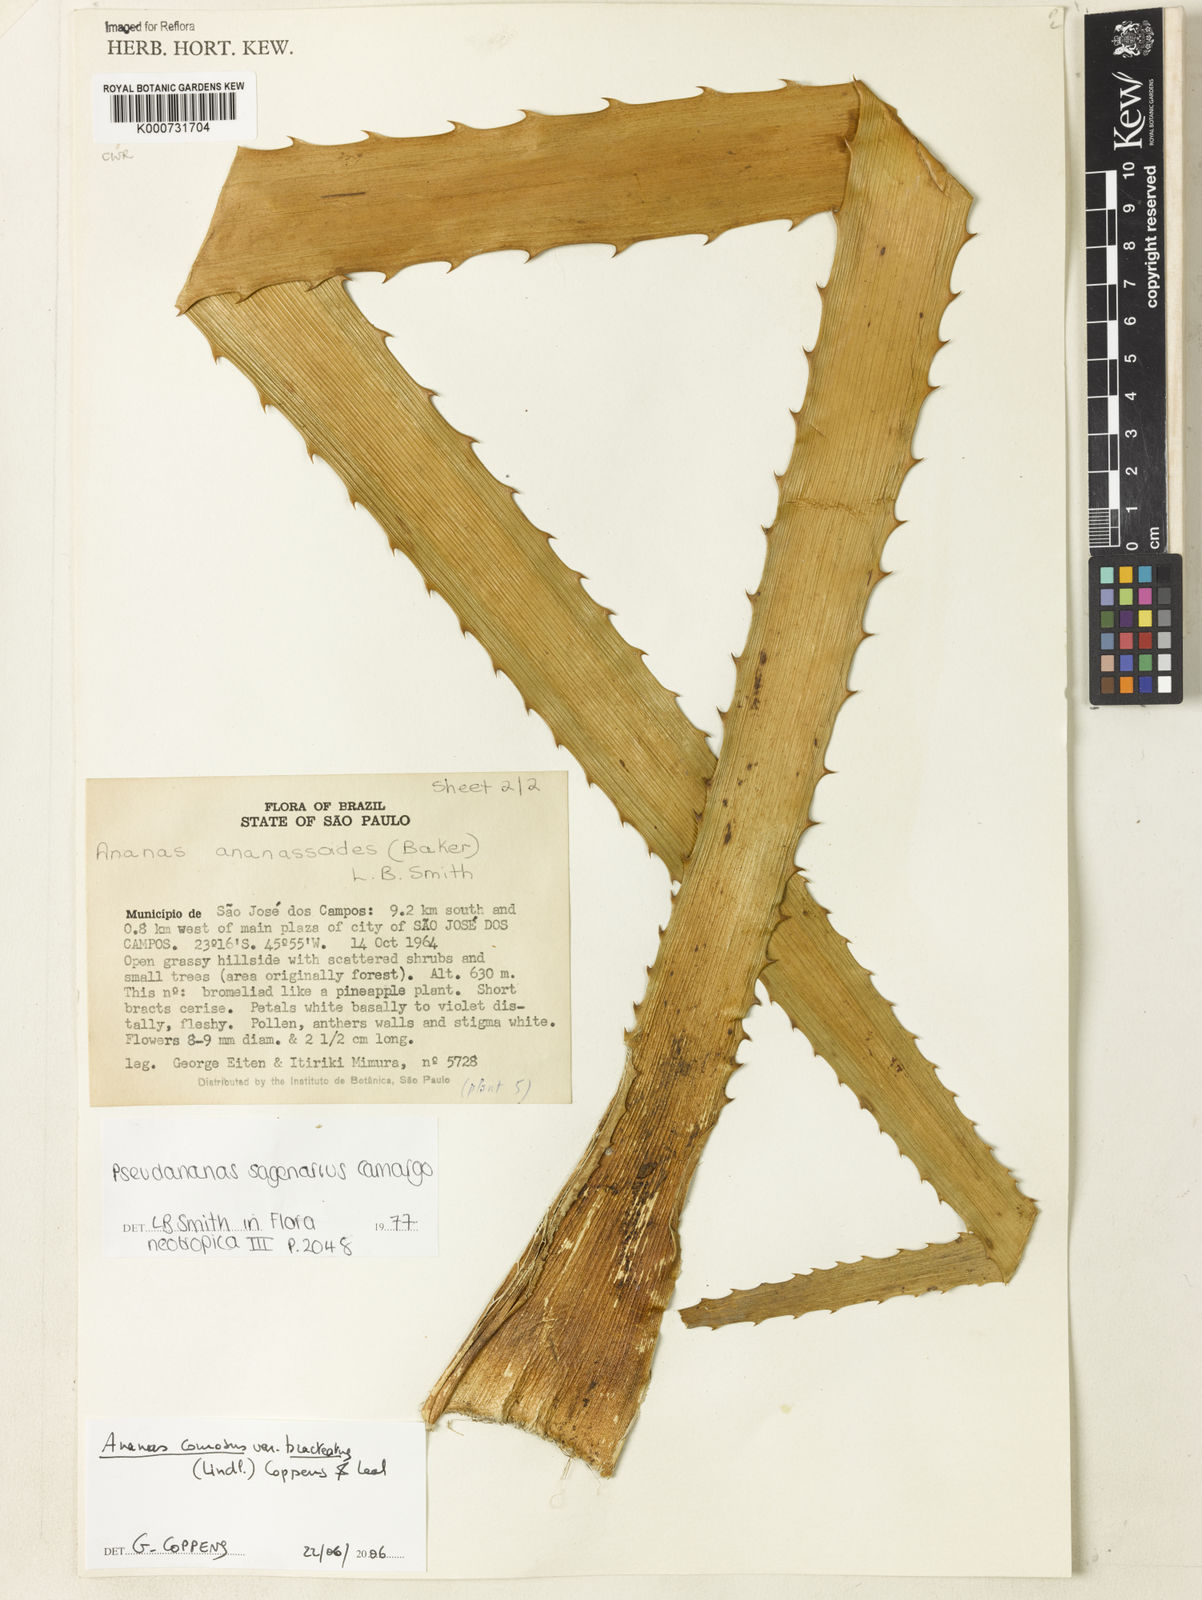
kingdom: Plantae
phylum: Tracheophyta
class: Liliopsida
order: Poales
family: Bromeliaceae
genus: Ananas
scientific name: Ananas comosus
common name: Pineapple
